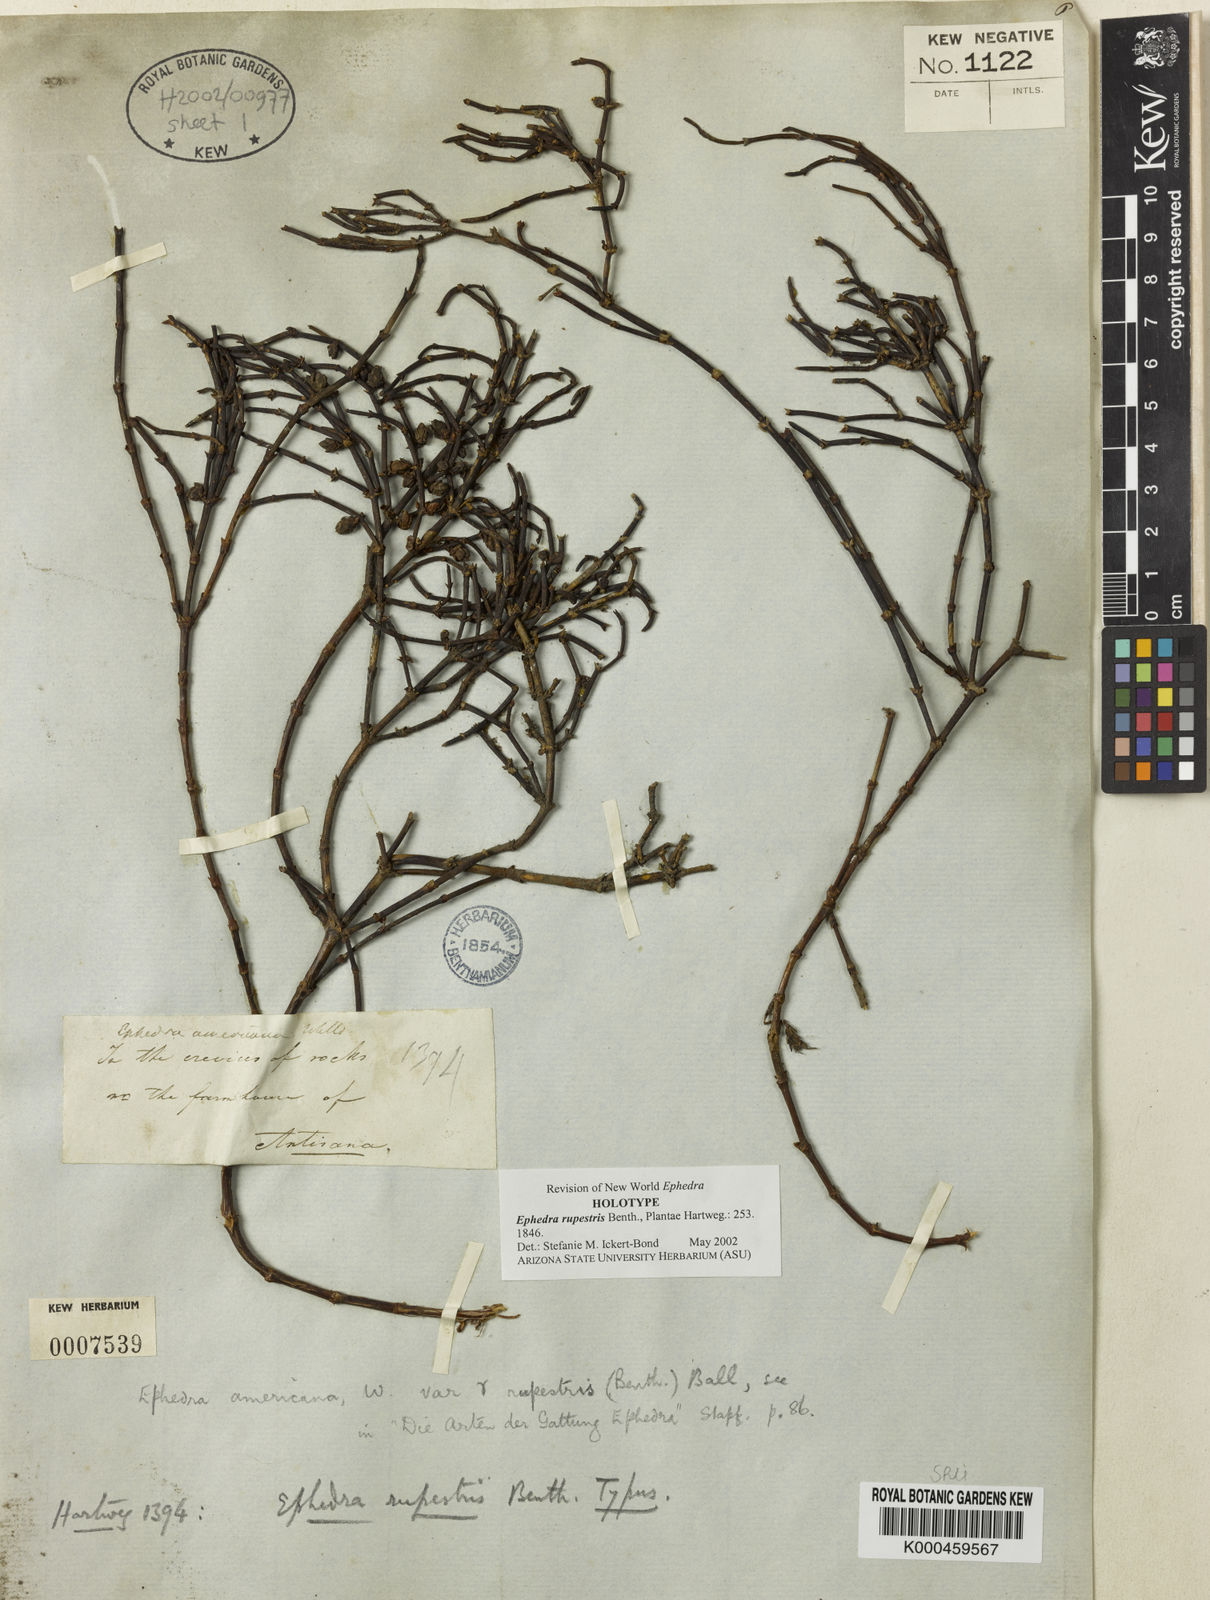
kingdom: Plantae
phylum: Tracheophyta
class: Gnetopsida
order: Ephedrales
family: Ephedraceae
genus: Ephedra
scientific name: Ephedra chilensis
